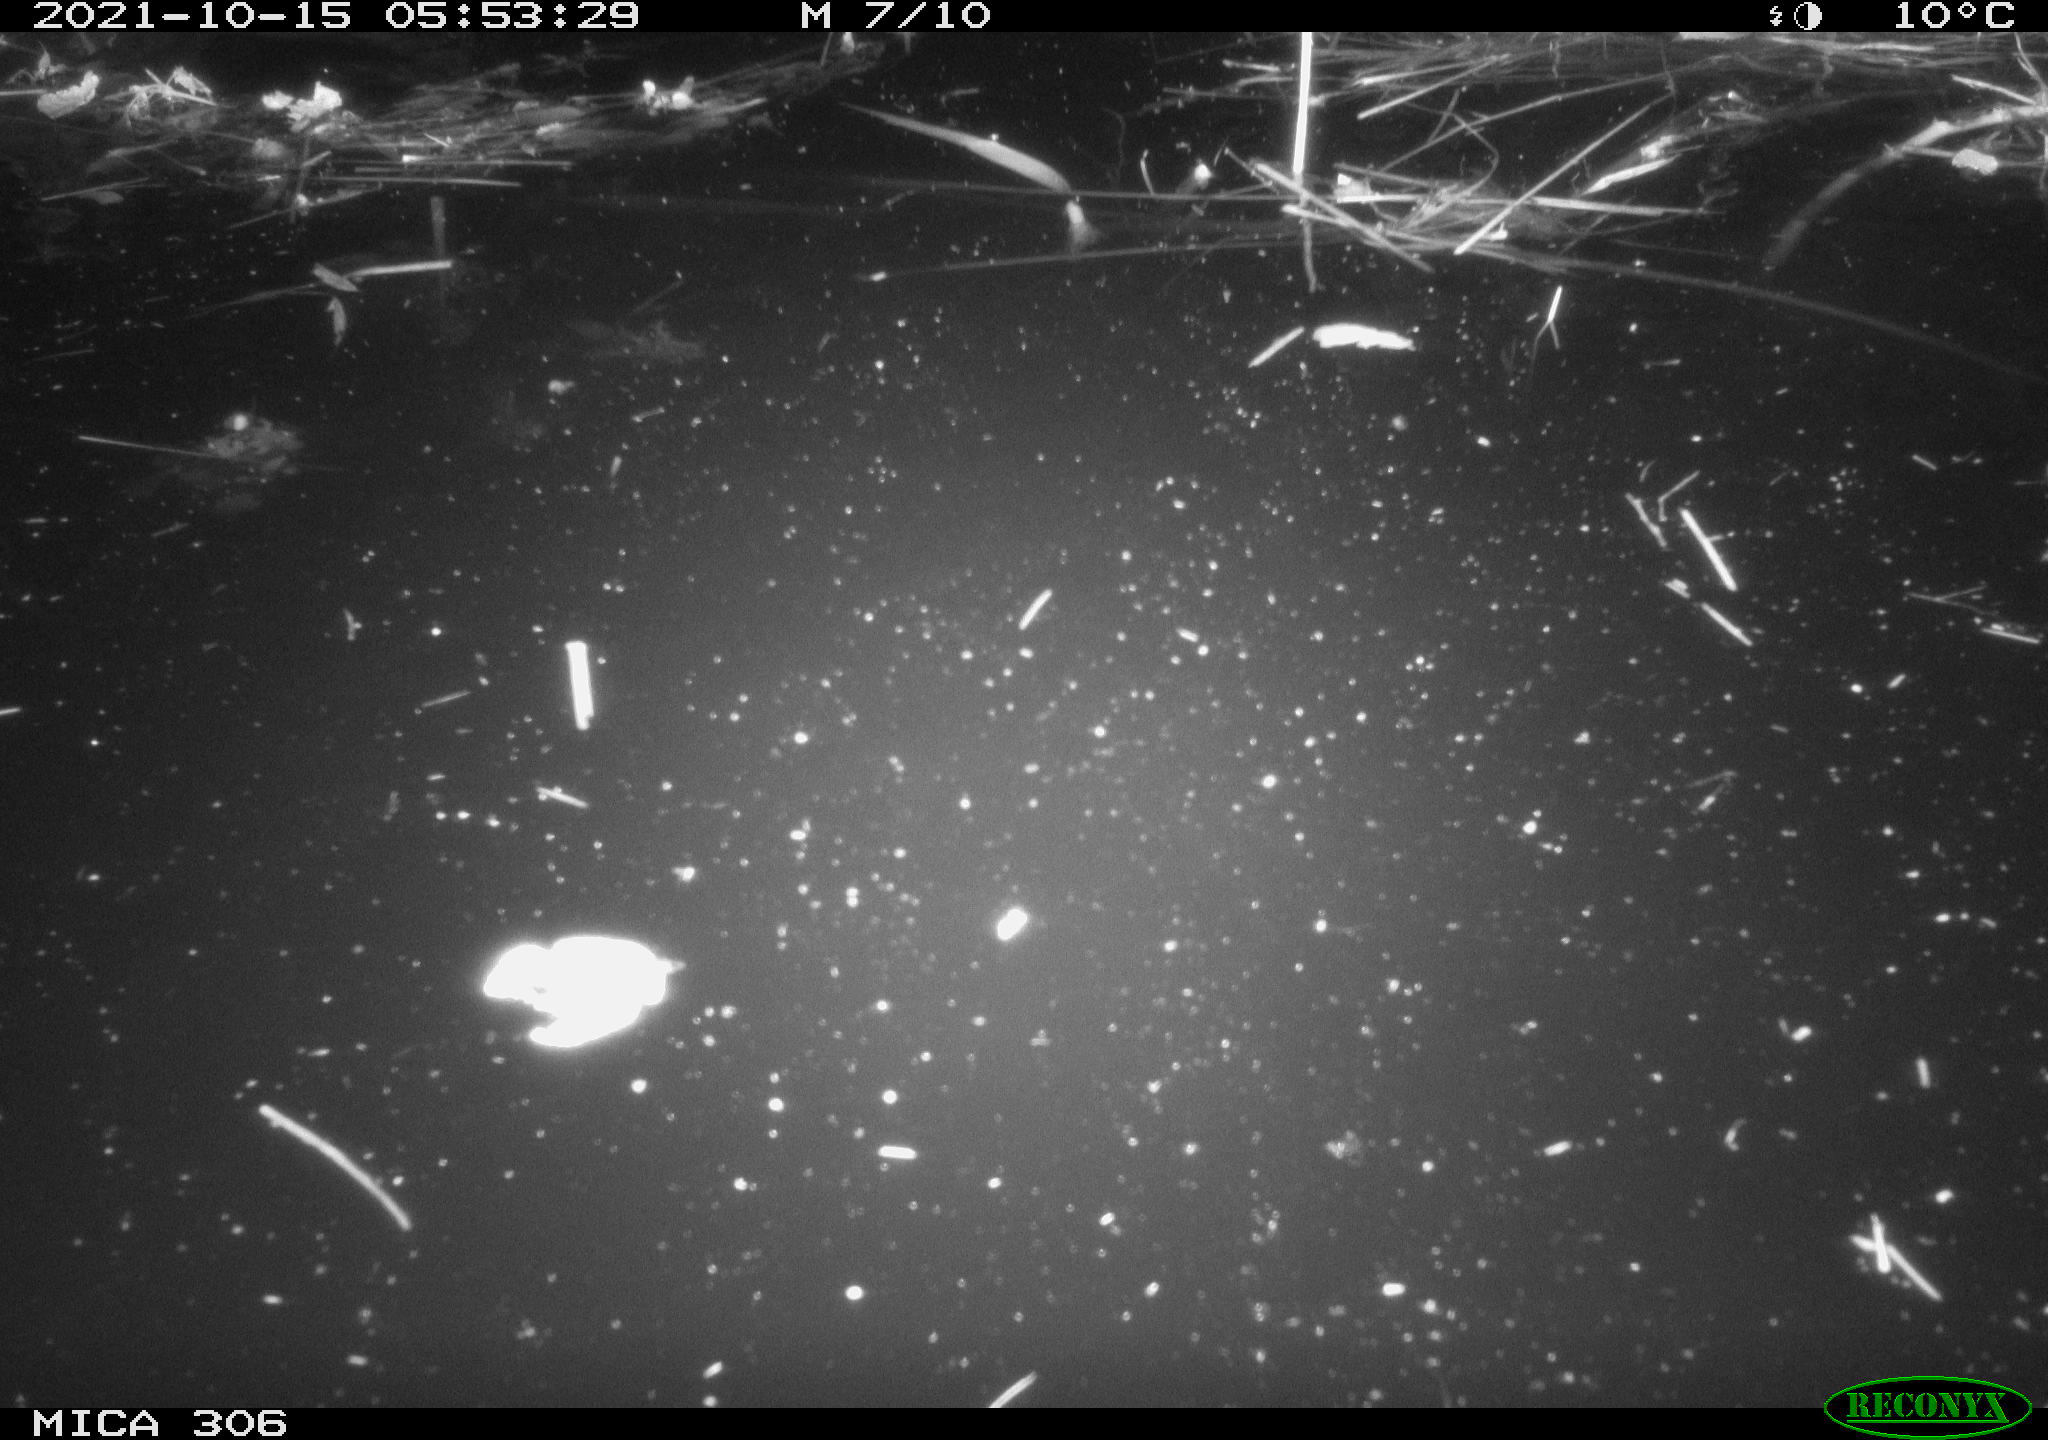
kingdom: Animalia
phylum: Chordata
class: Mammalia
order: Rodentia
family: Cricetidae
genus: Ondatra
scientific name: Ondatra zibethicus
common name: Muskrat
